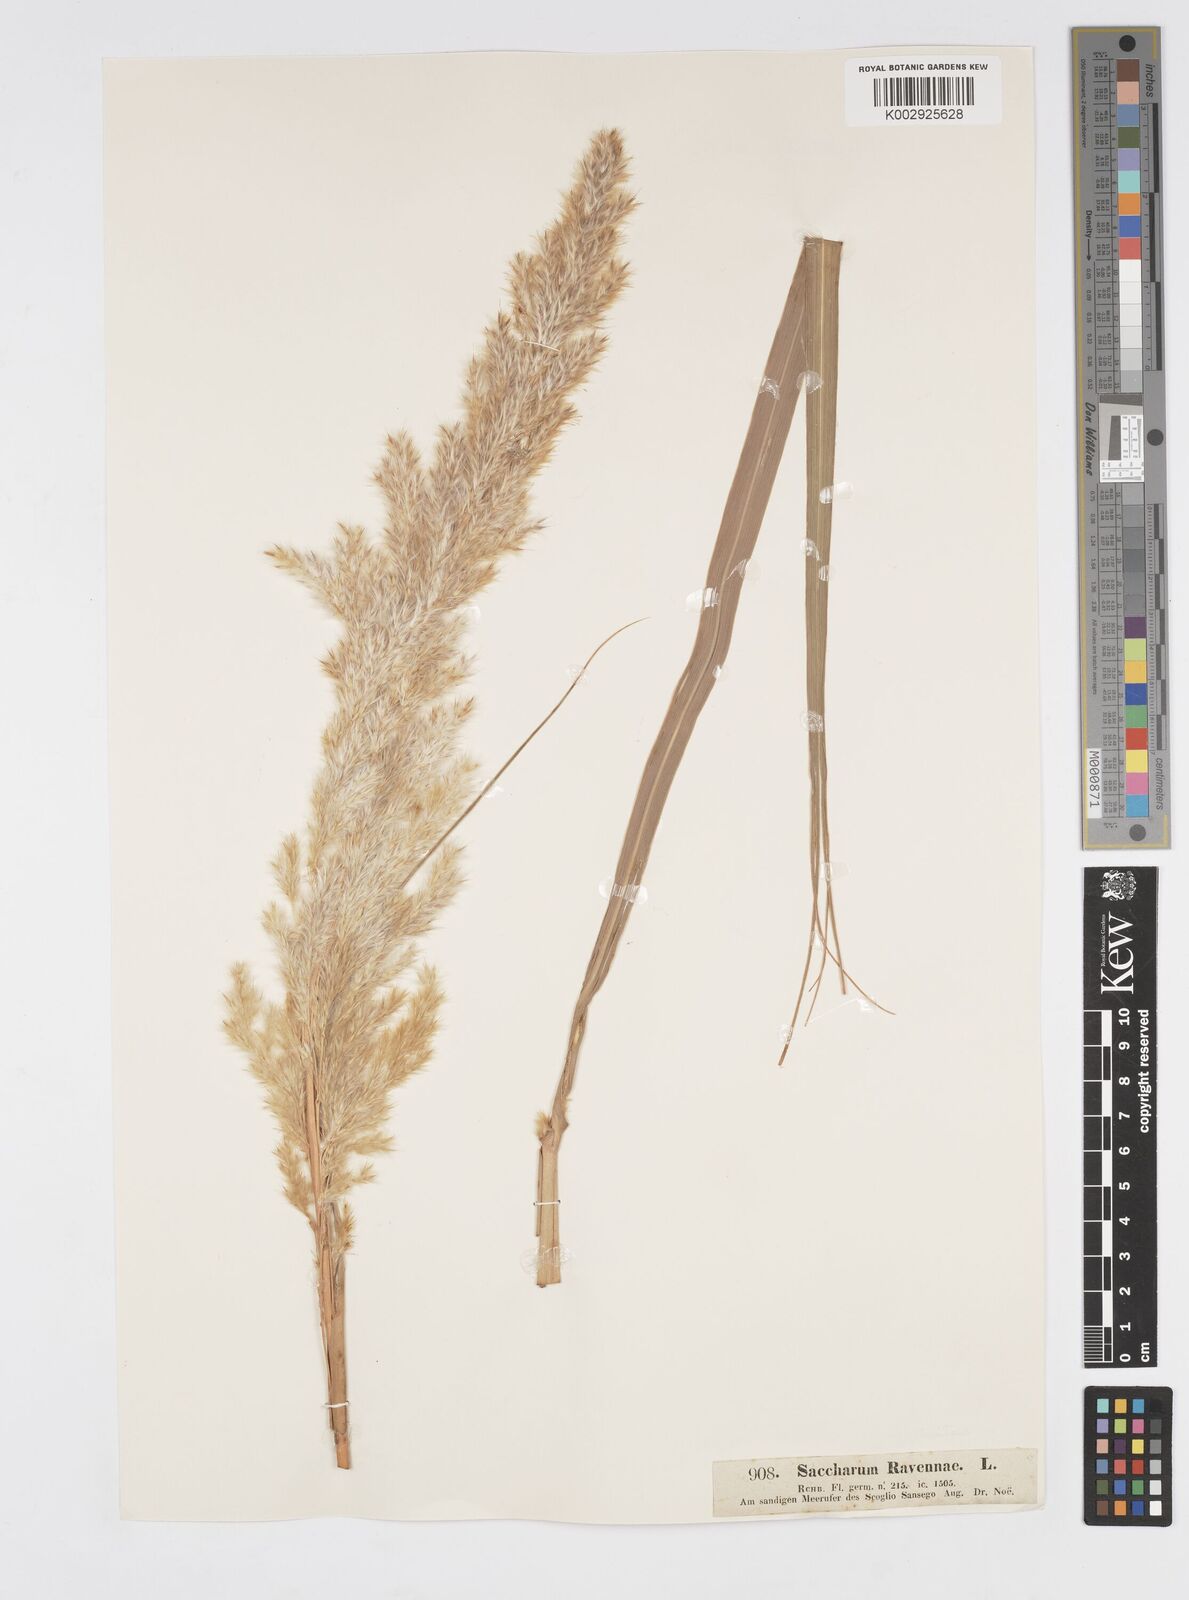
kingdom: Plantae
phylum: Tracheophyta
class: Liliopsida
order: Poales
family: Poaceae
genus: Tripidium
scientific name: Tripidium ravennae
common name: Ravenna grass
